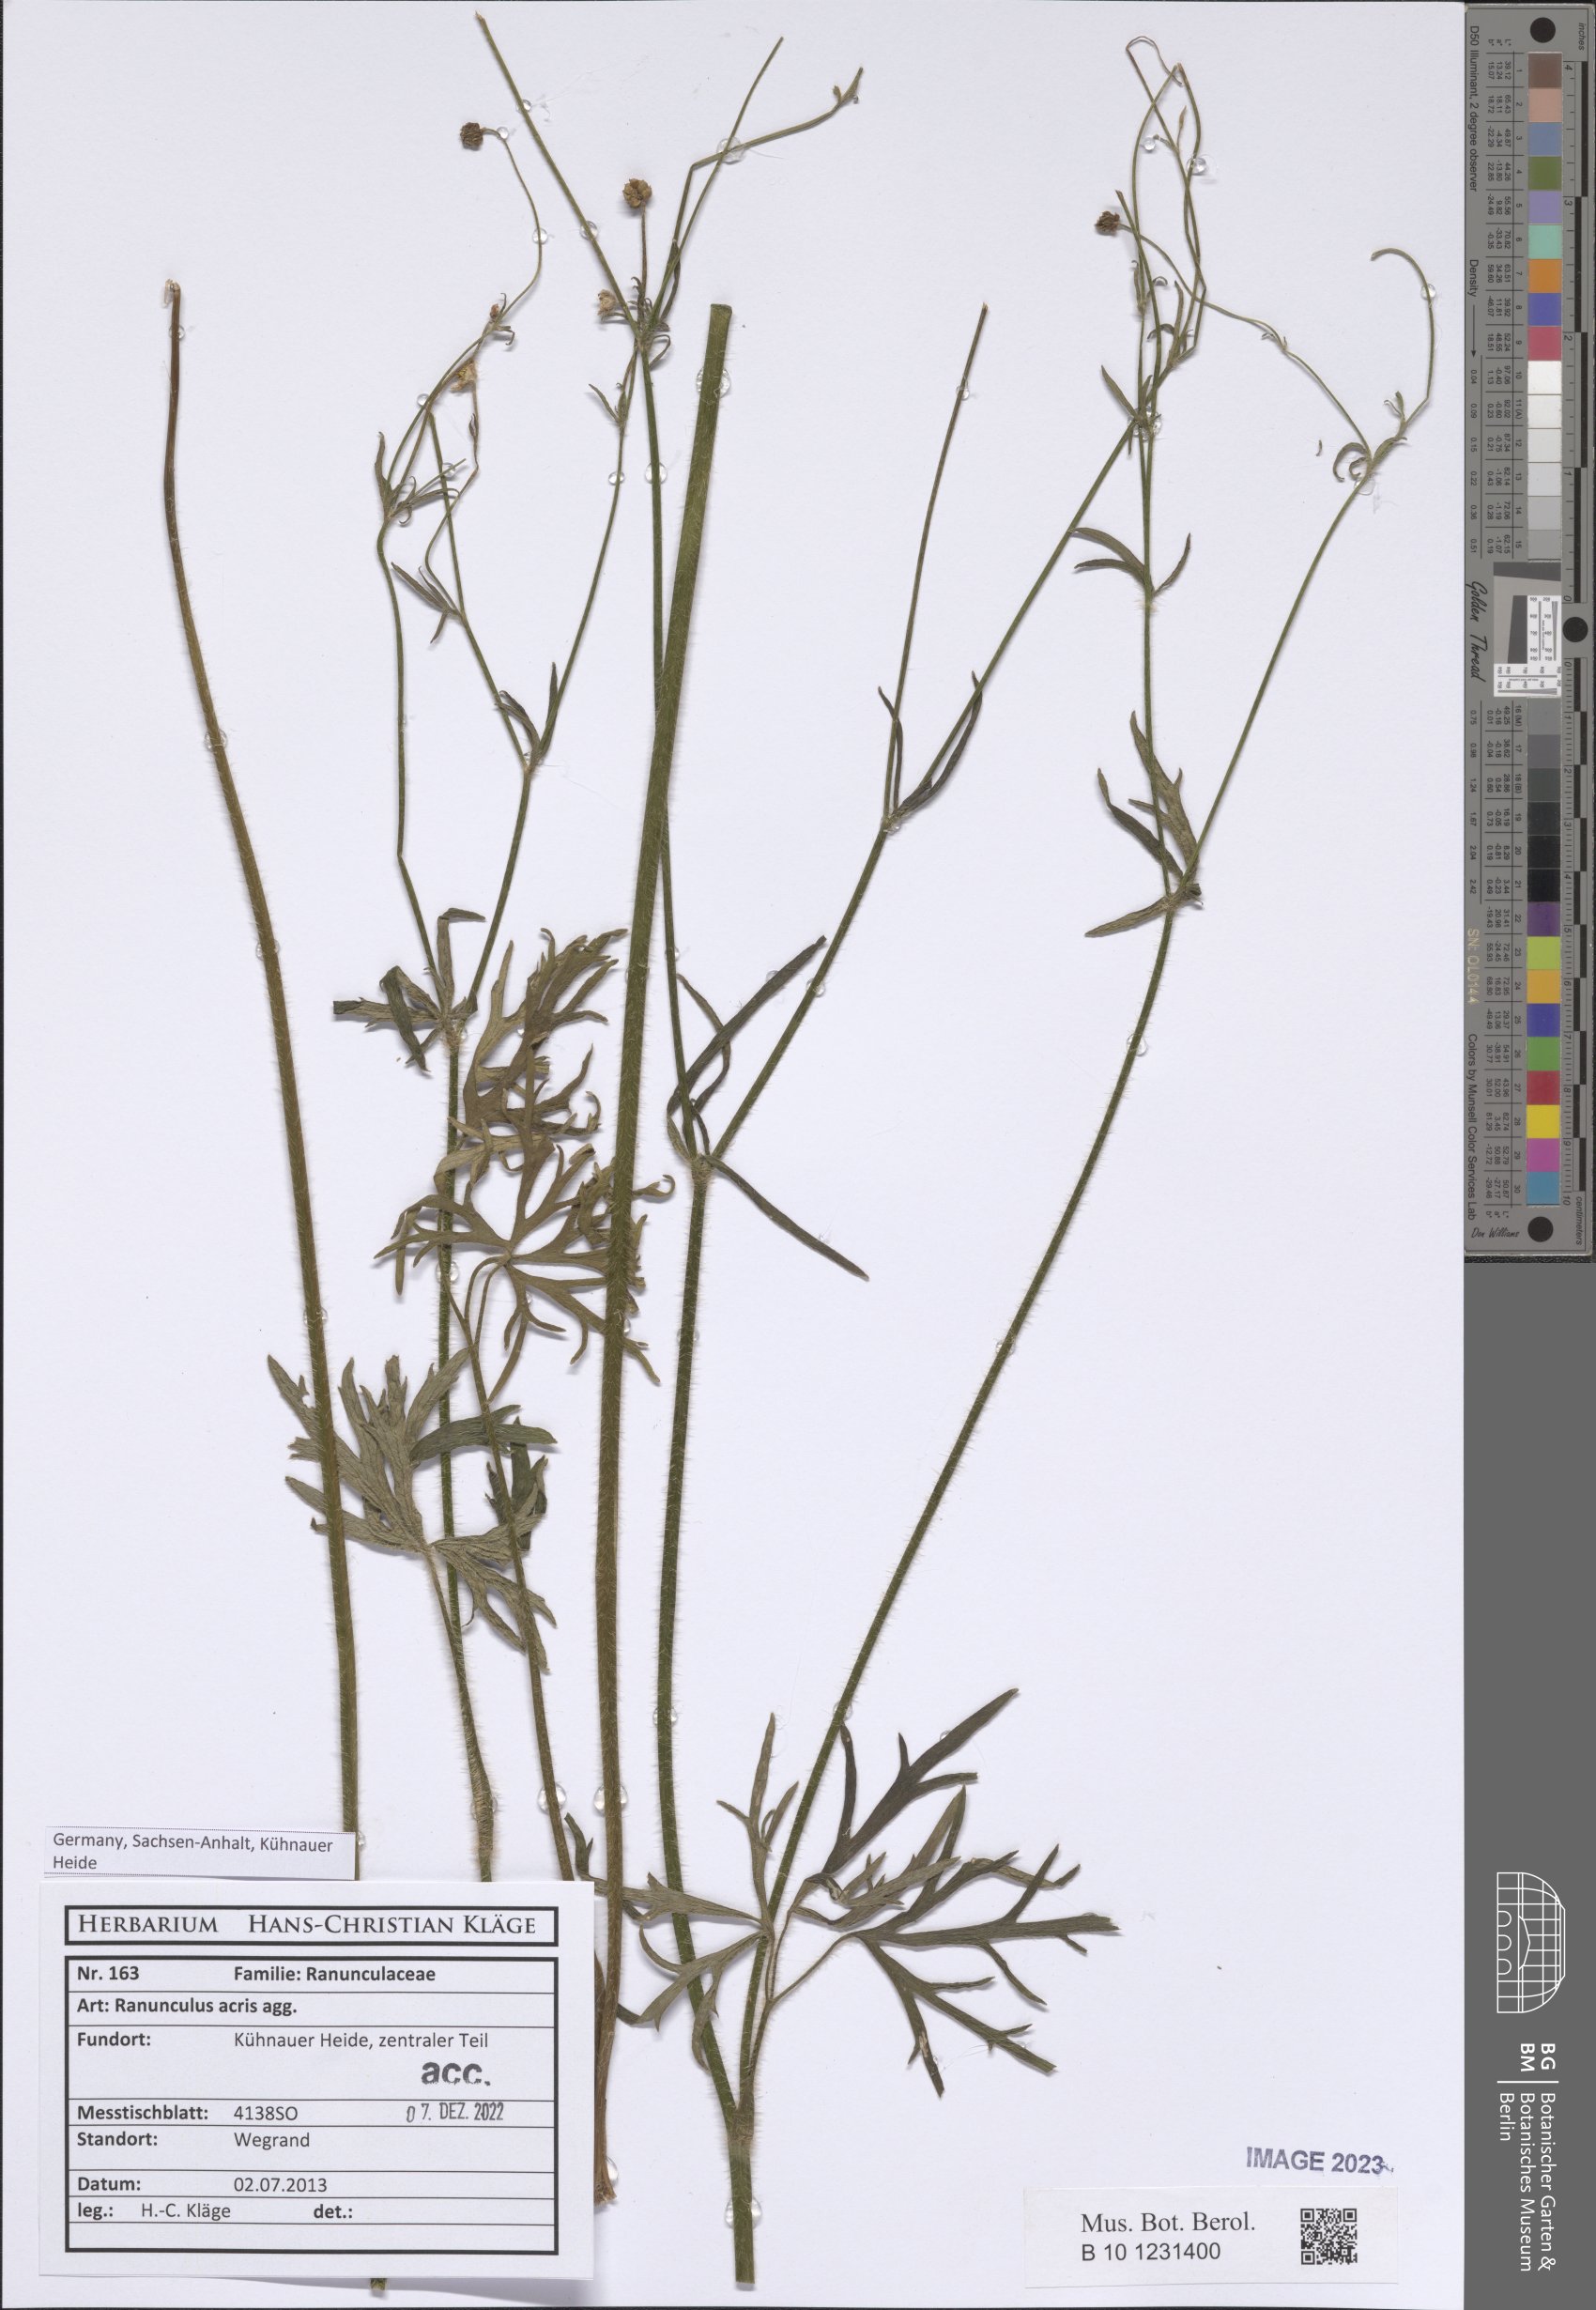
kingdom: Plantae
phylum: Tracheophyta
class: Magnoliopsida
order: Ranunculales
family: Ranunculaceae
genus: Ranunculus
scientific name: Ranunculus acris
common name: Meadow buttercup
